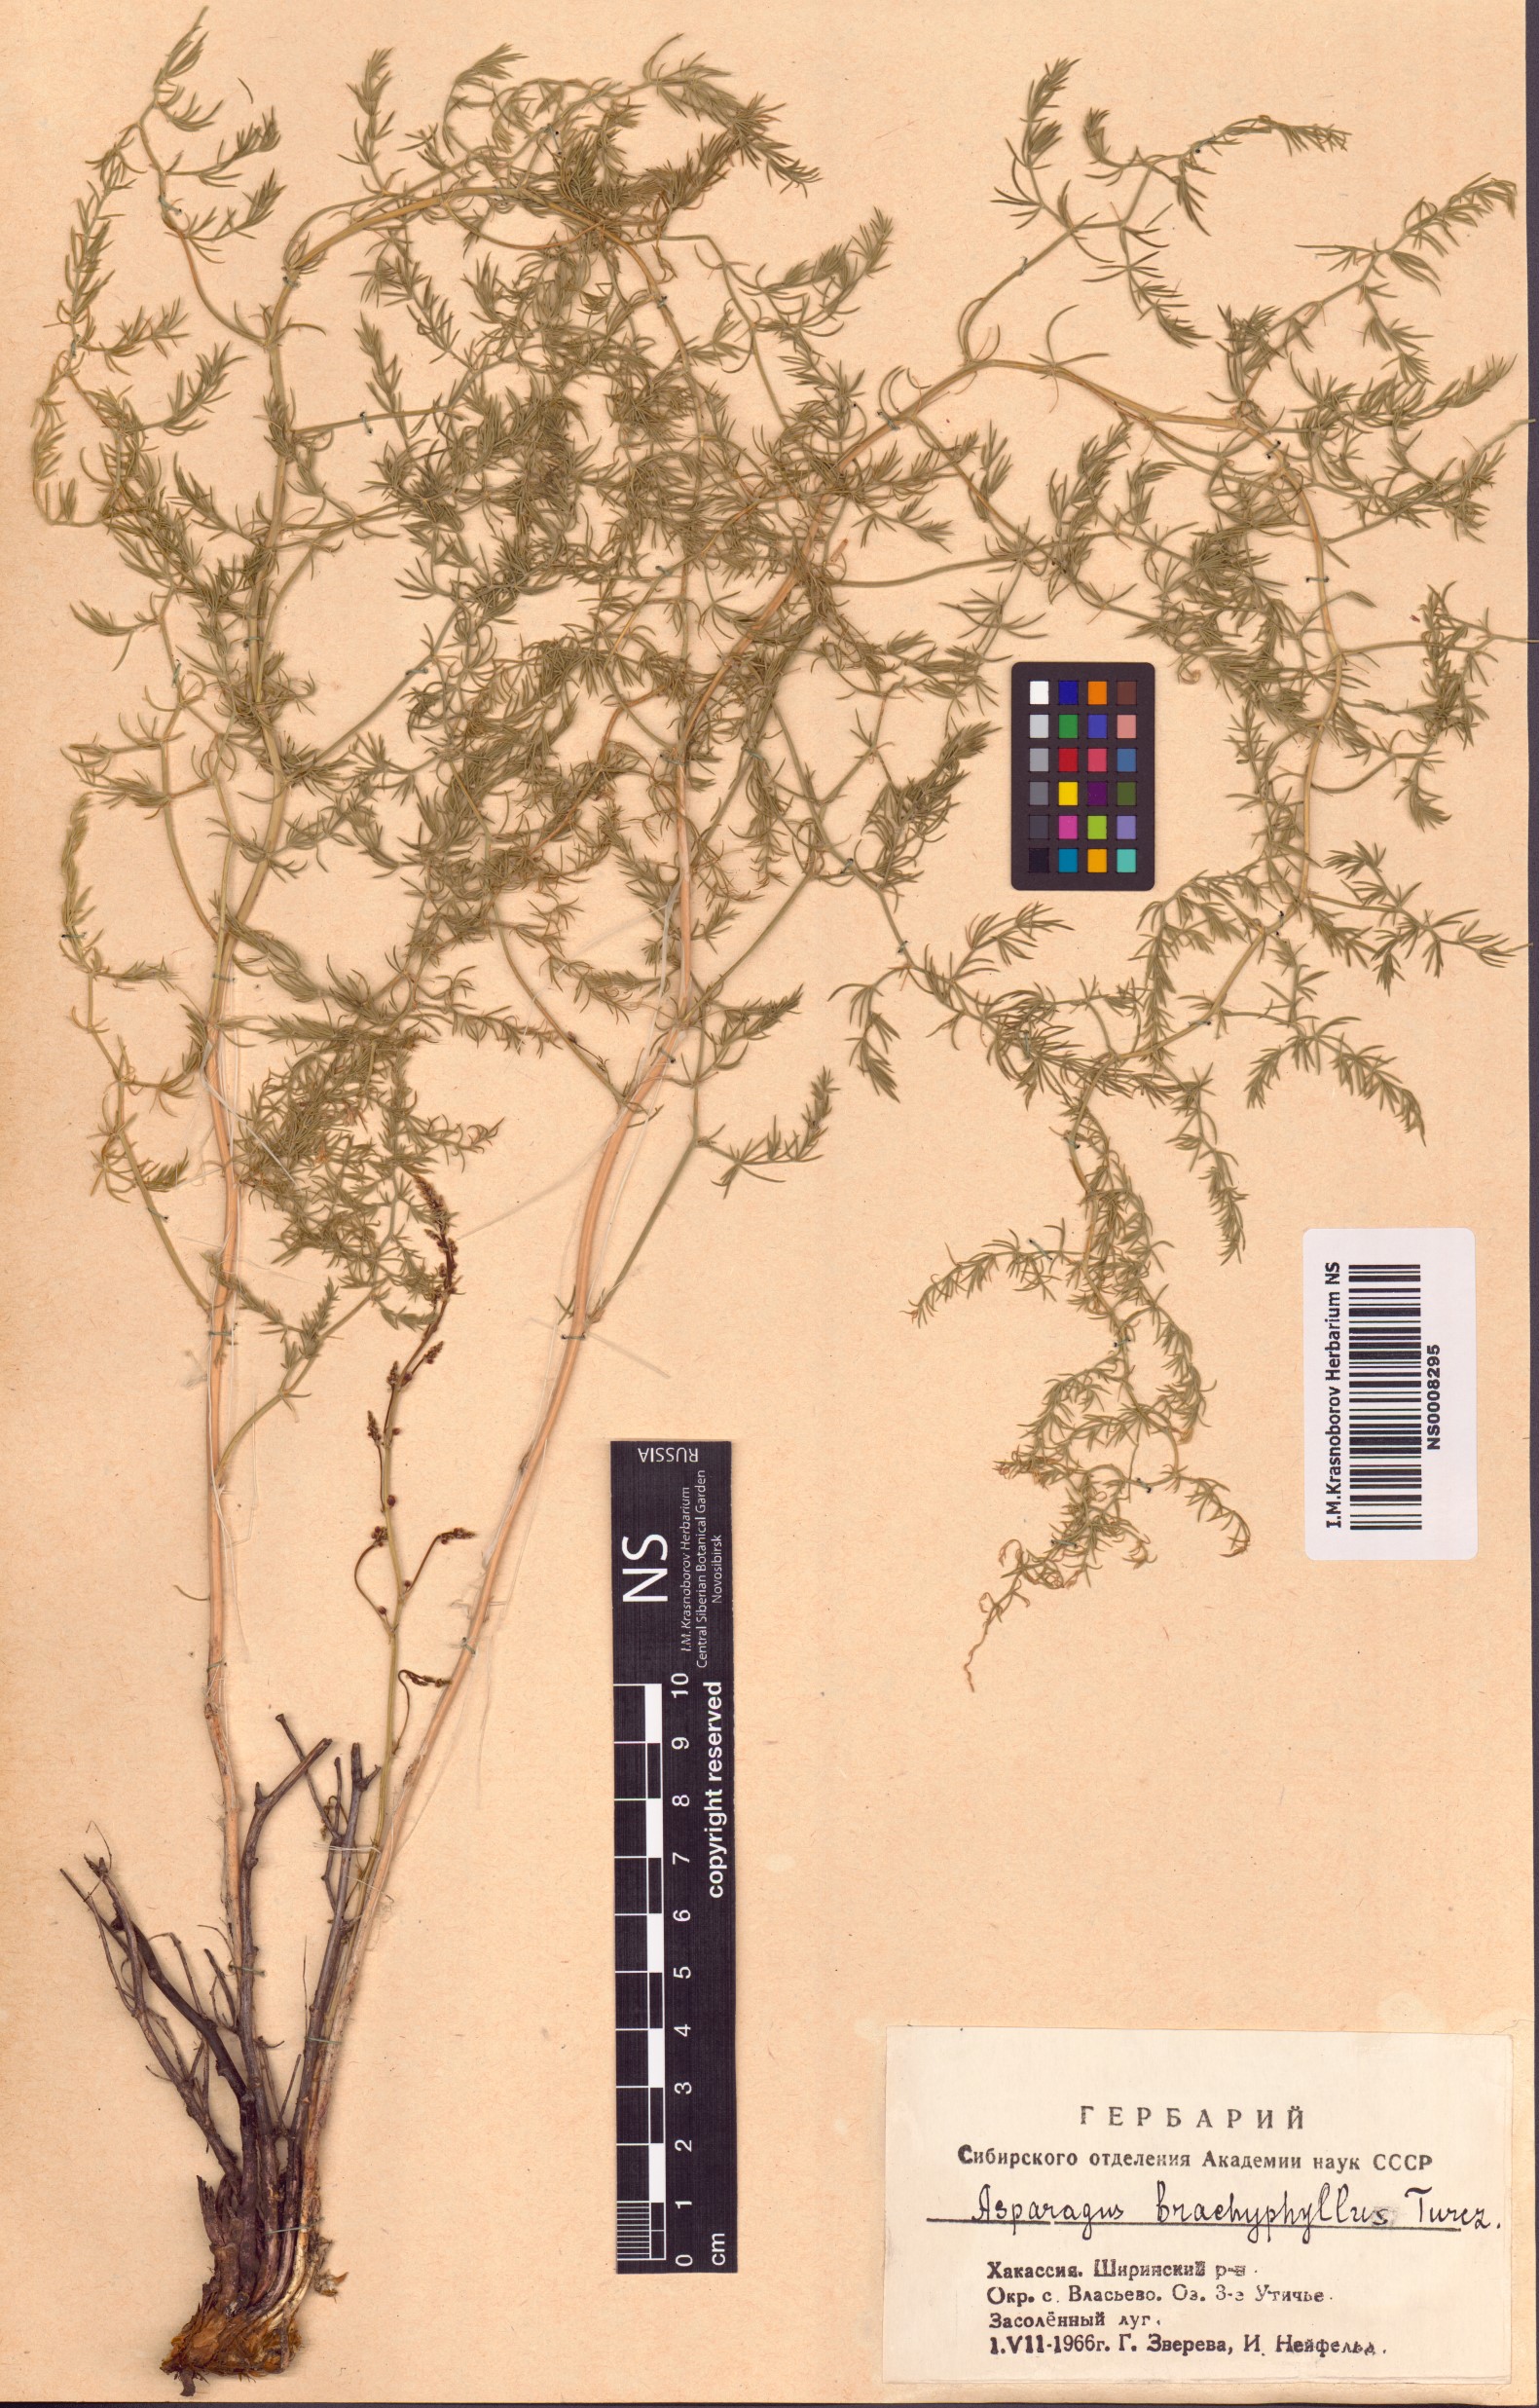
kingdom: Plantae
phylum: Tracheophyta
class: Liliopsida
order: Asparagales
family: Asparagaceae
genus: Asparagus
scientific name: Asparagus brachyphyllus
